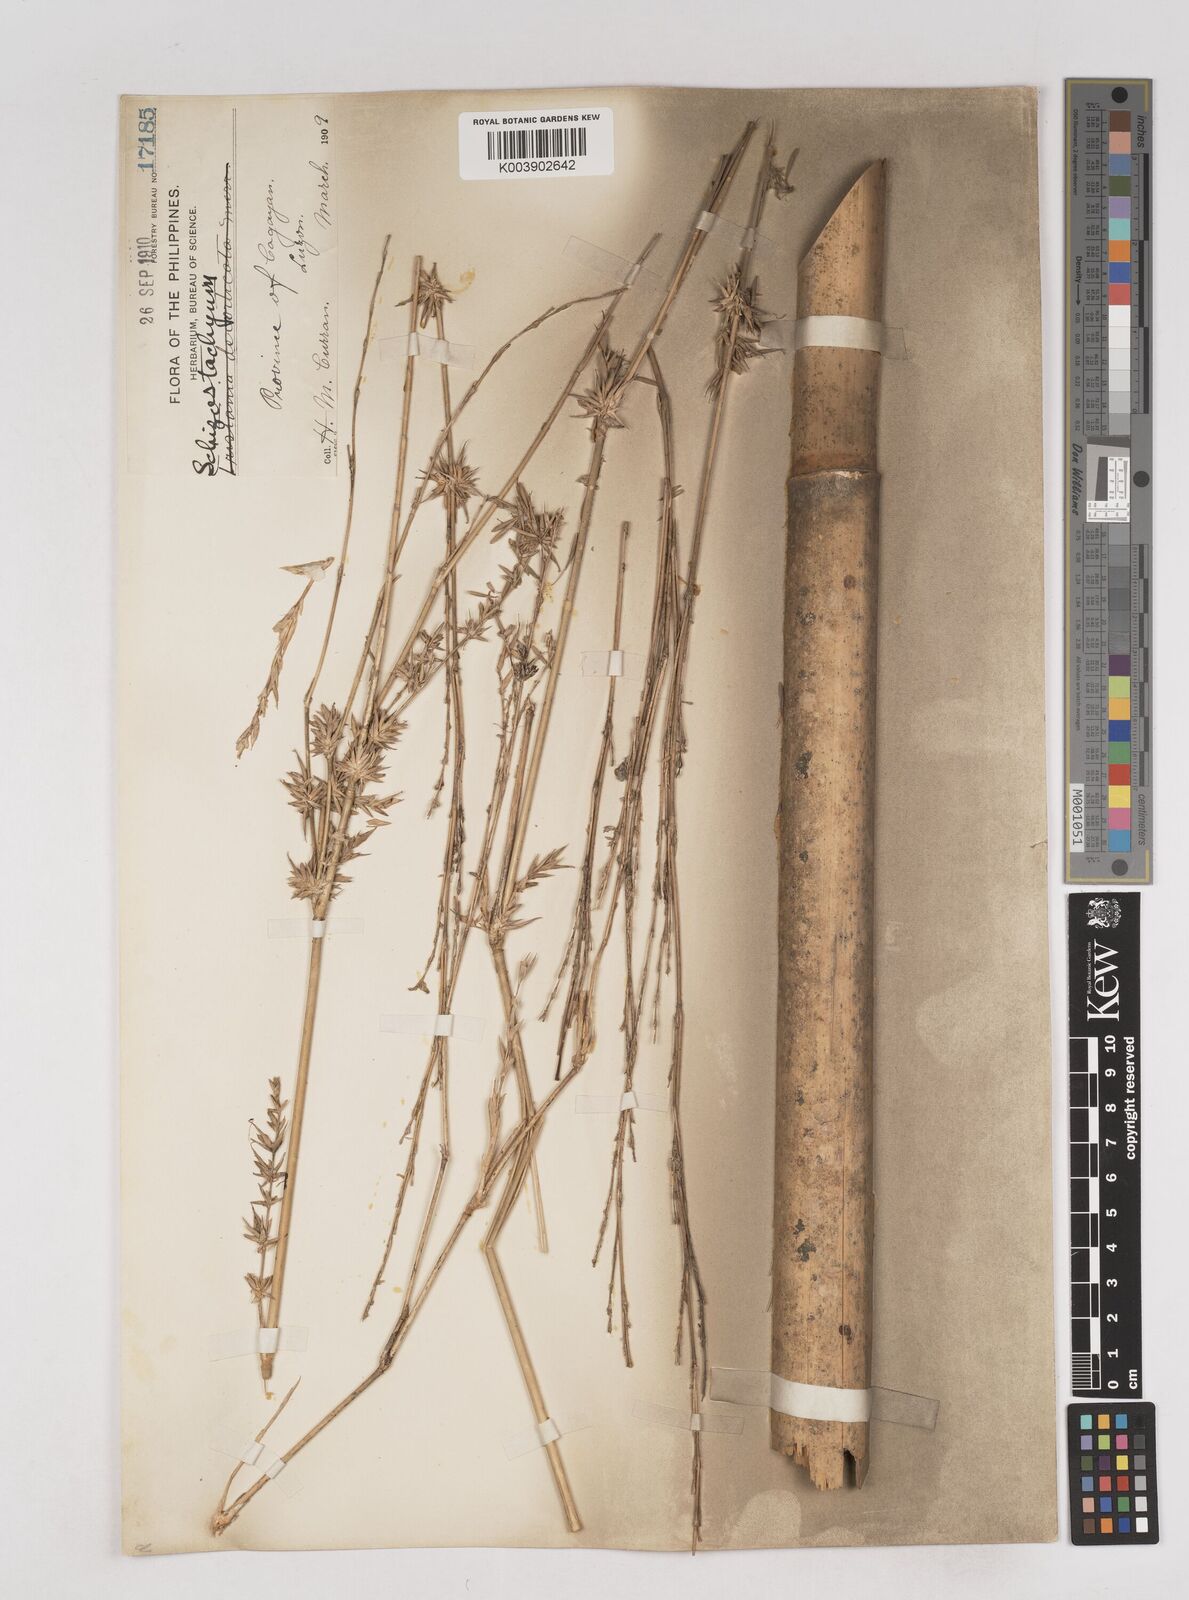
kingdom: Plantae
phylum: Tracheophyta
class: Liliopsida
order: Poales
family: Poaceae
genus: Schizostachyum
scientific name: Schizostachyum
